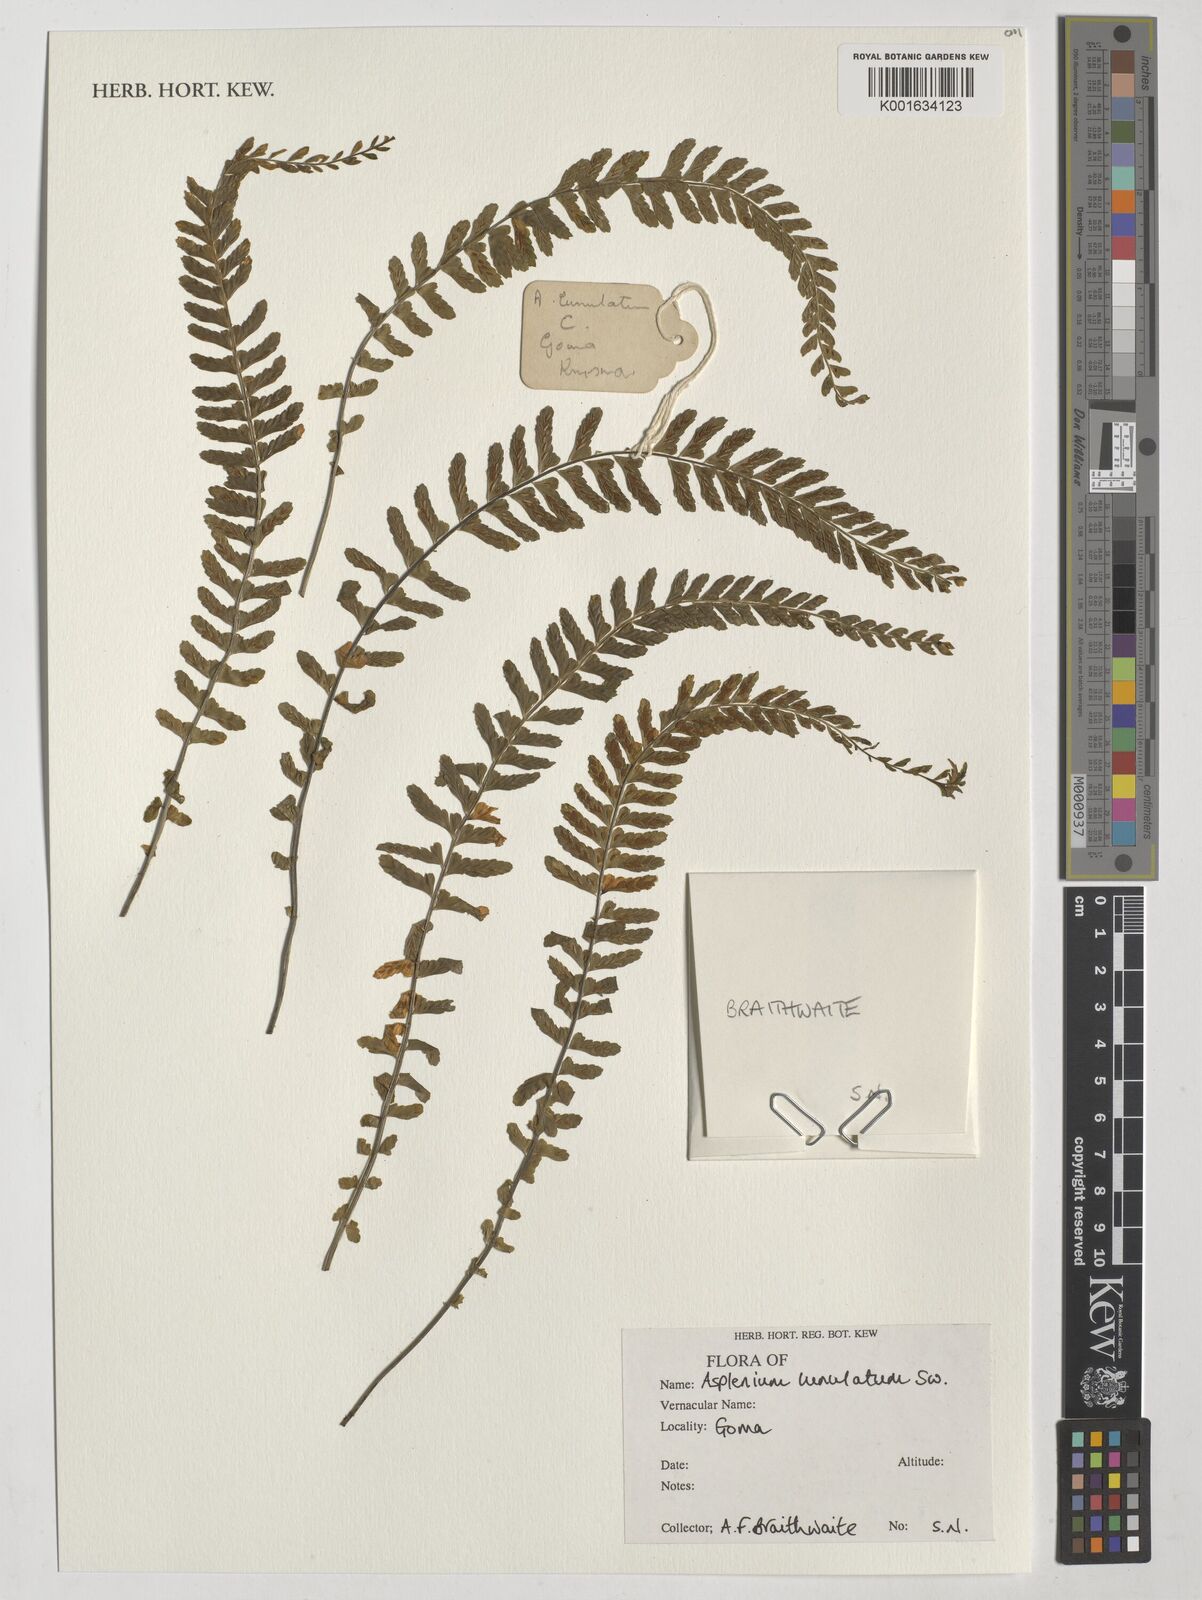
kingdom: Plantae
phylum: Tracheophyta
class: Polypodiopsida
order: Polypodiales
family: Aspleniaceae
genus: Asplenium
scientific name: Asplenium lunulatum
